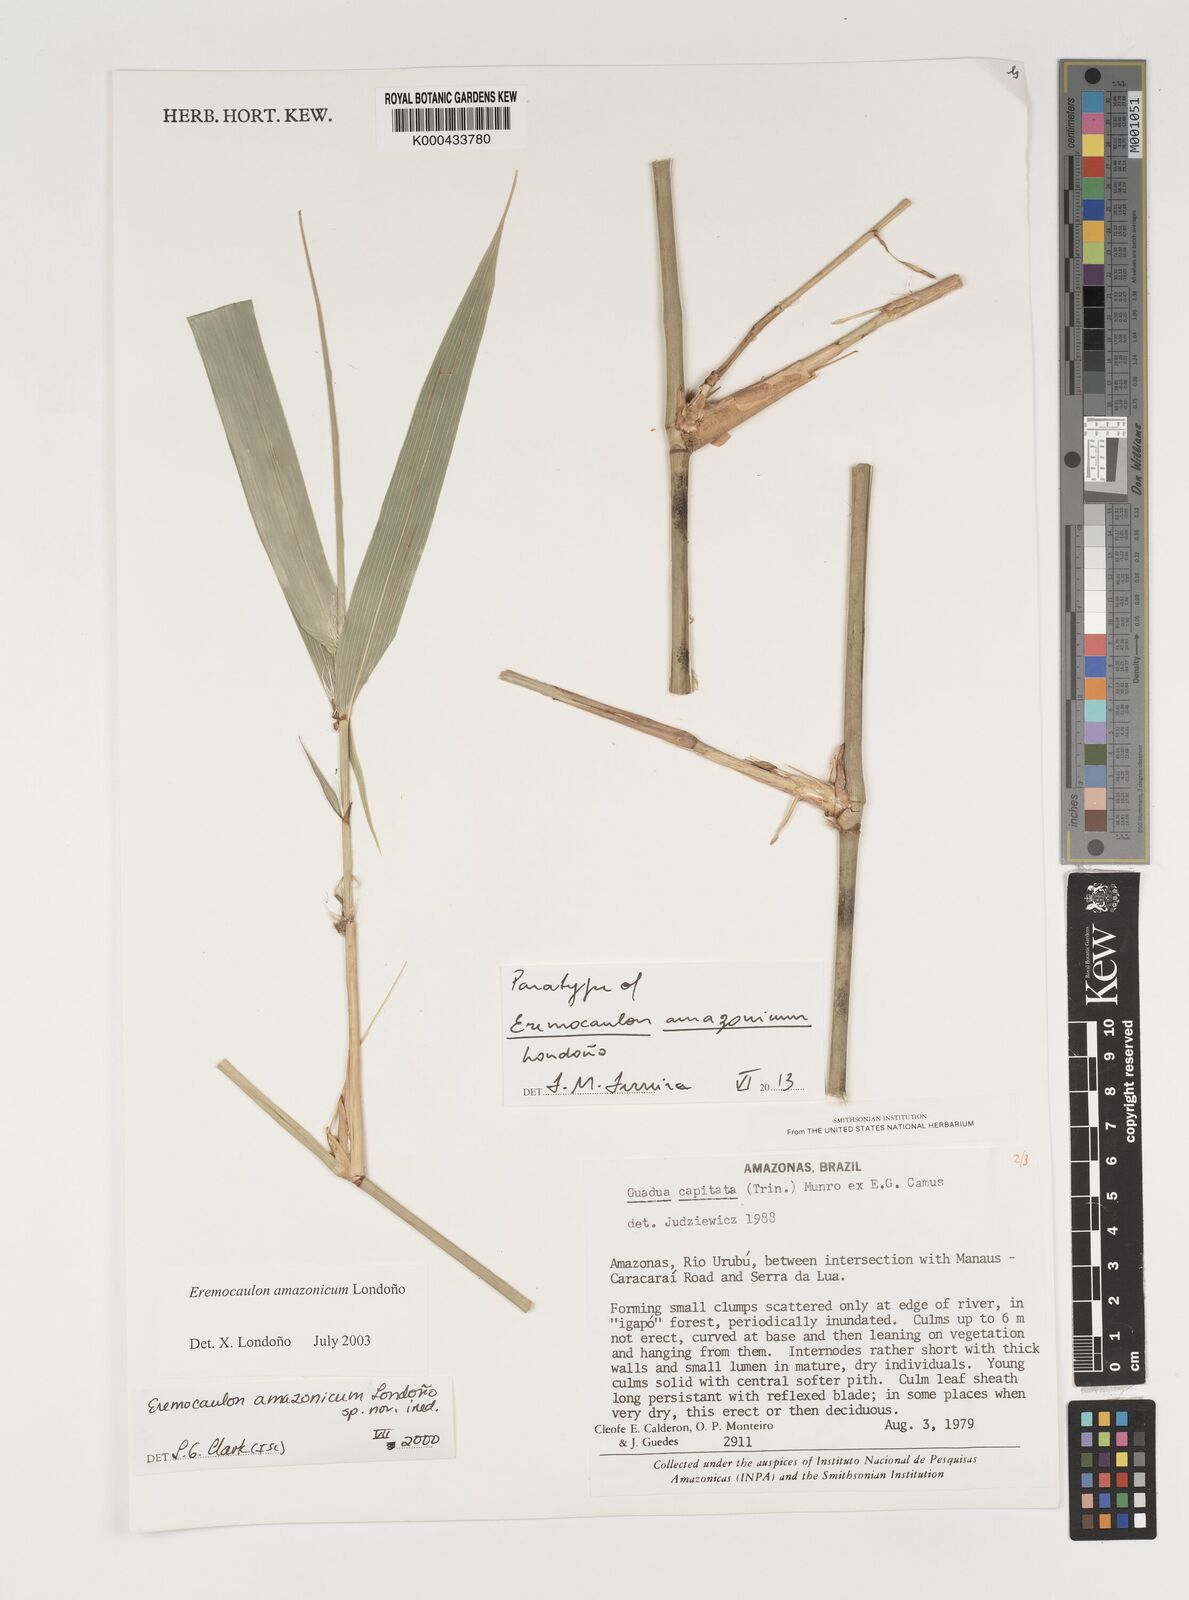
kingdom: Plantae
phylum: Tracheophyta
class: Liliopsida
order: Poales
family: Poaceae
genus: Eremocaulon
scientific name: Eremocaulon
